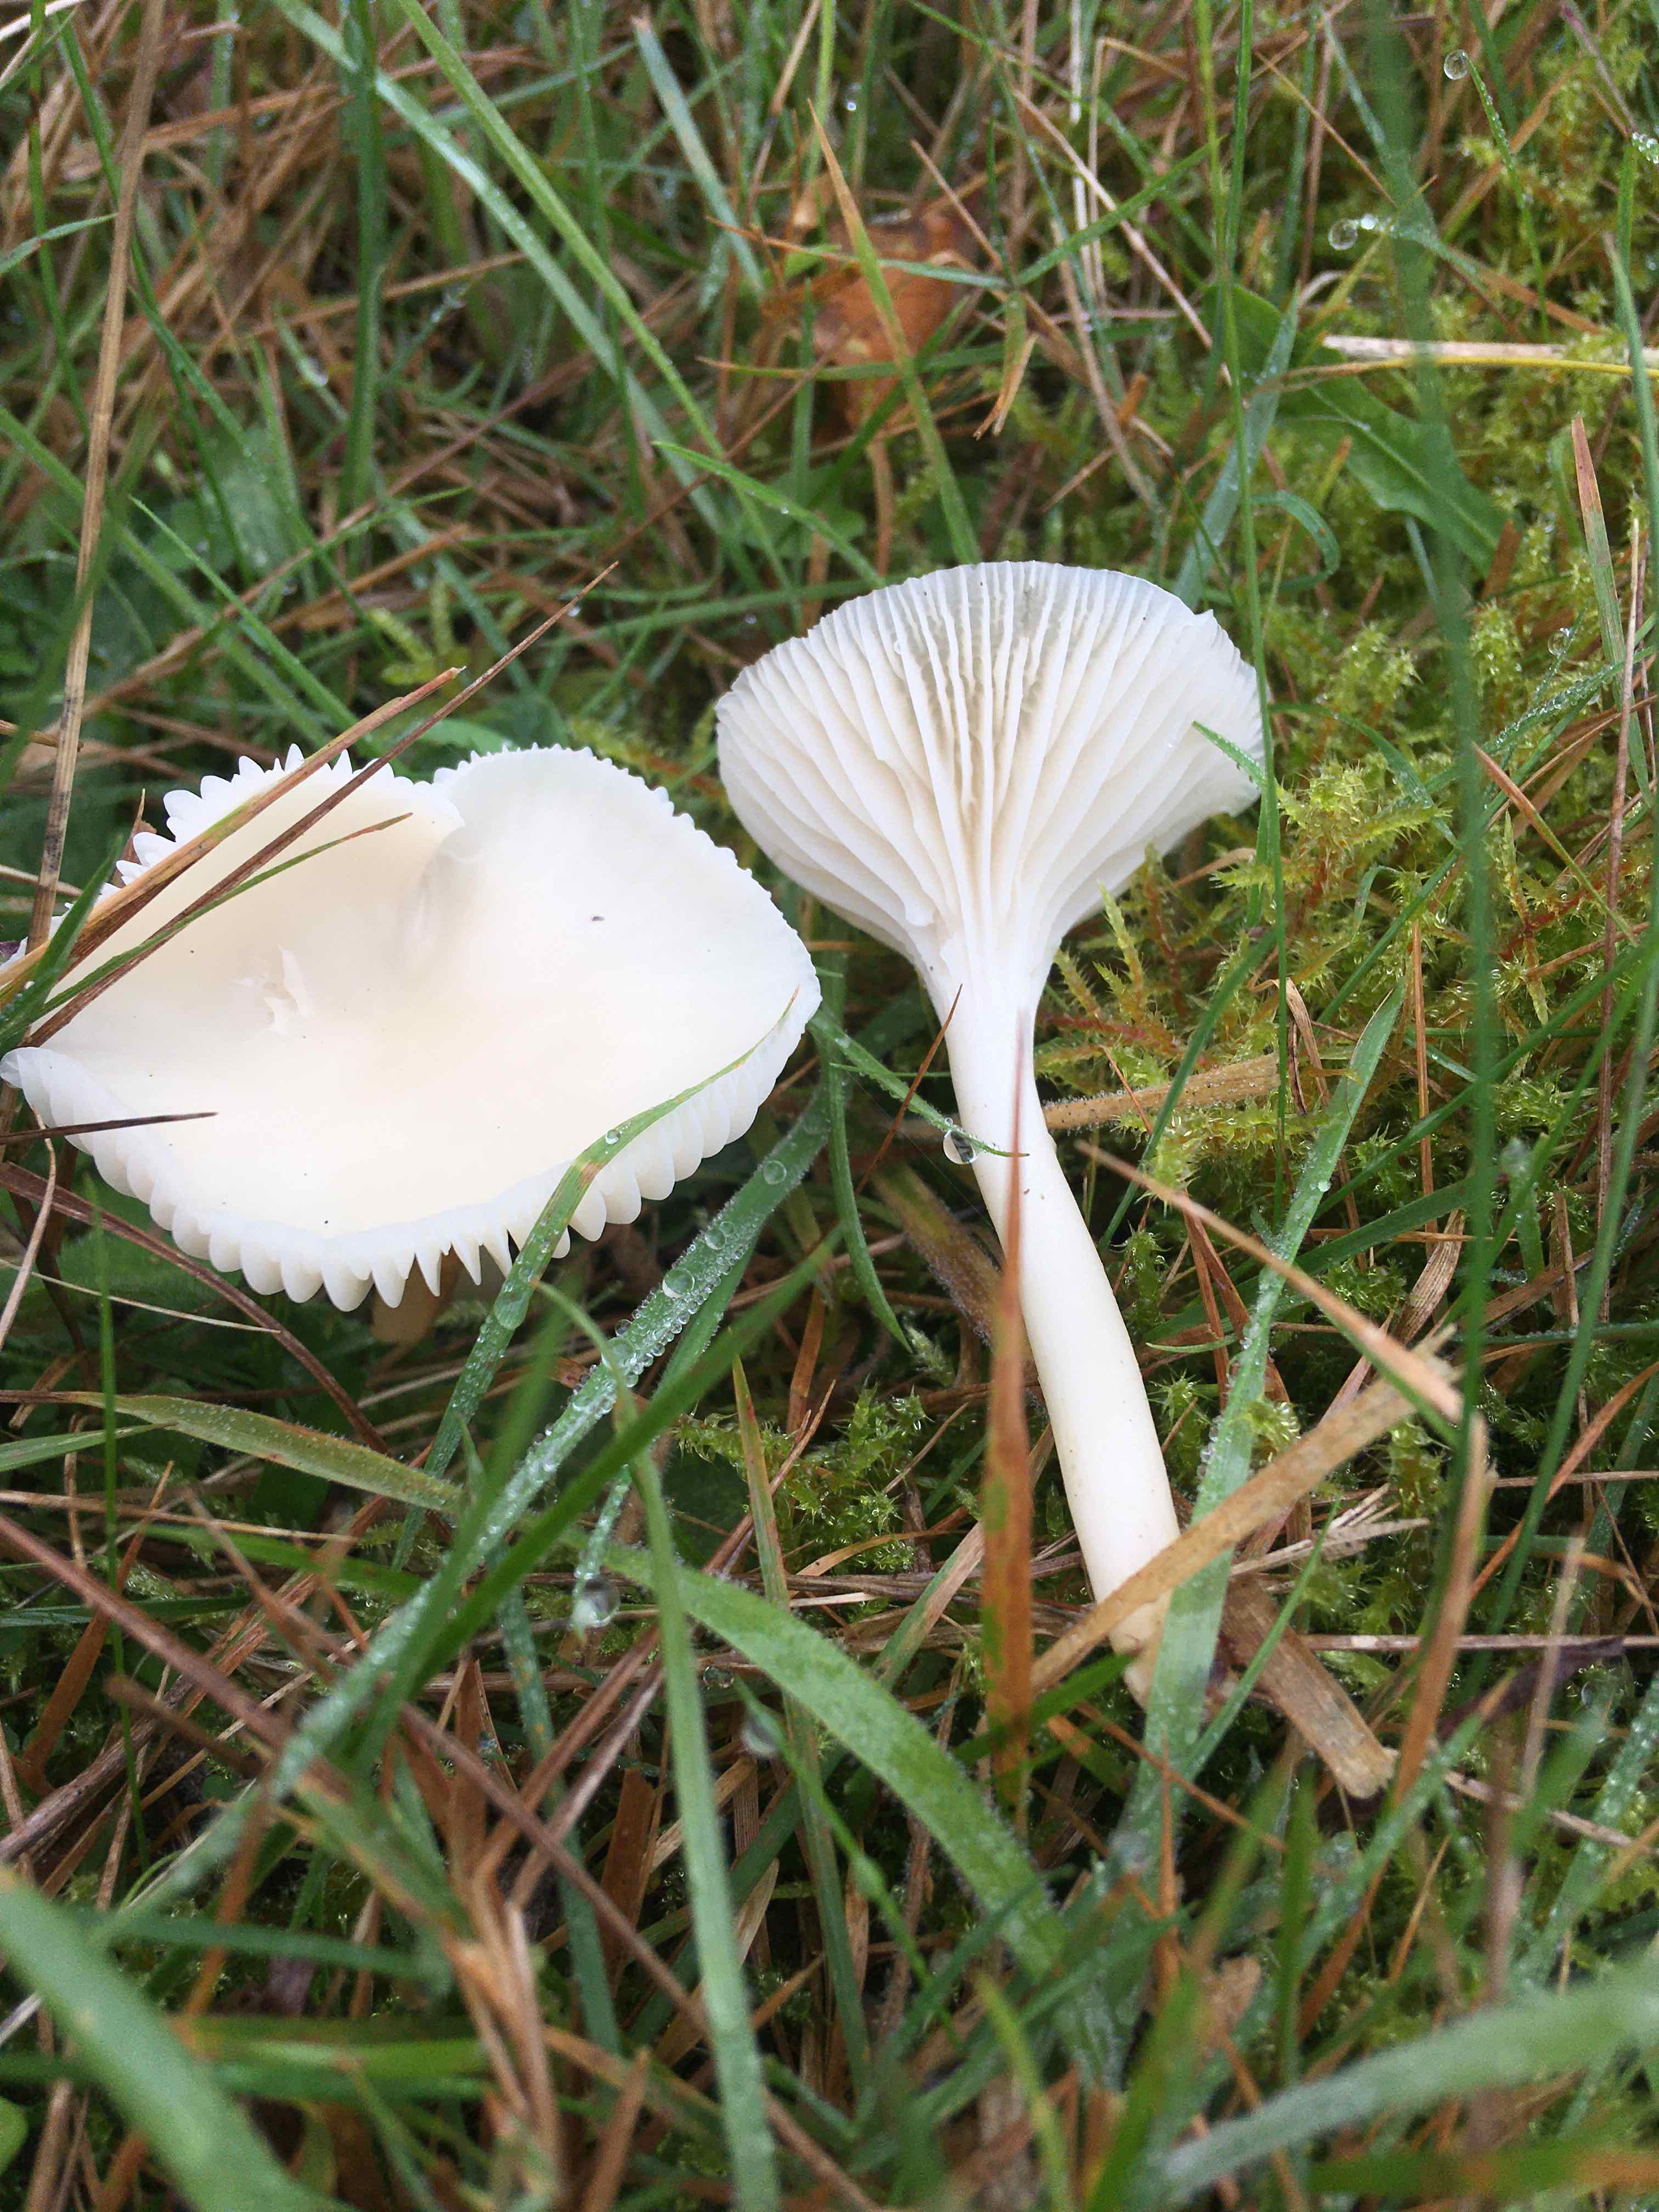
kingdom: Fungi
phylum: Basidiomycota
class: Agaricomycetes
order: Agaricales
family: Hygrophoraceae
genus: Cuphophyllus
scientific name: Cuphophyllus virgineus
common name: snehvid vokshat
